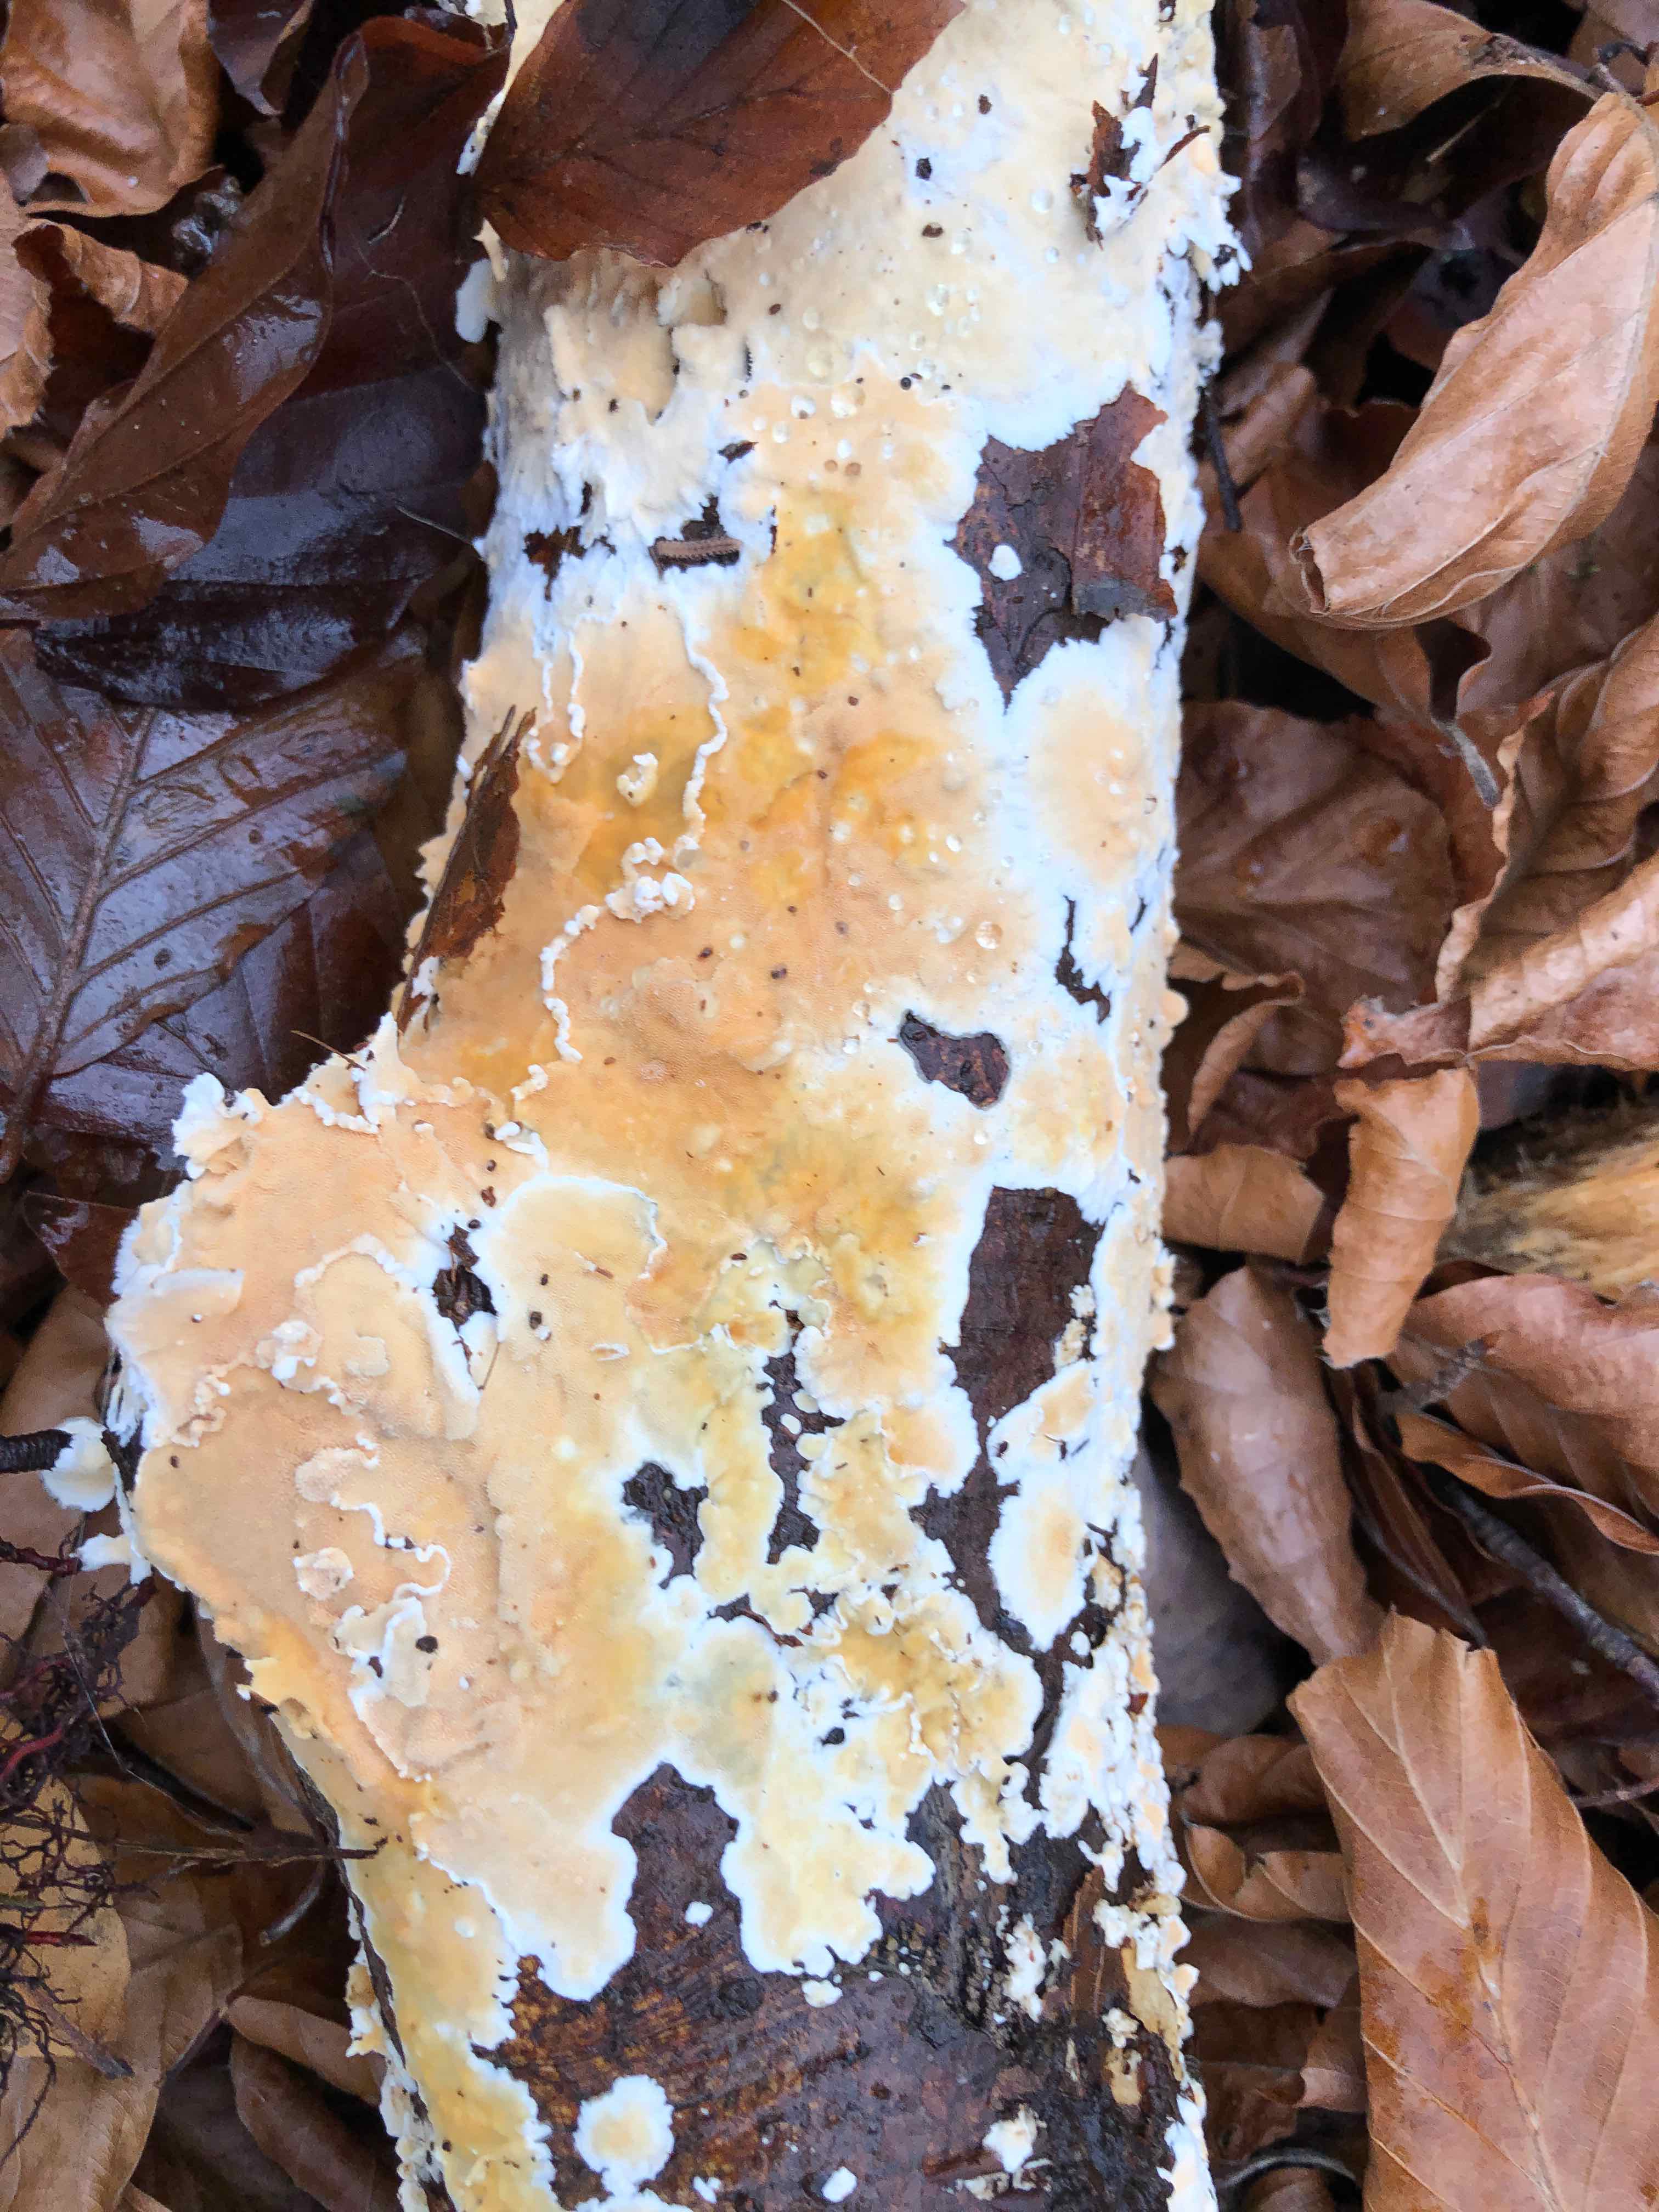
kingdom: Fungi
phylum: Basidiomycota
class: Agaricomycetes
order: Polyporales
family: Steccherinaceae
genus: Steccherinum
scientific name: Steccherinum ochraceum
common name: almindelig skønpig
